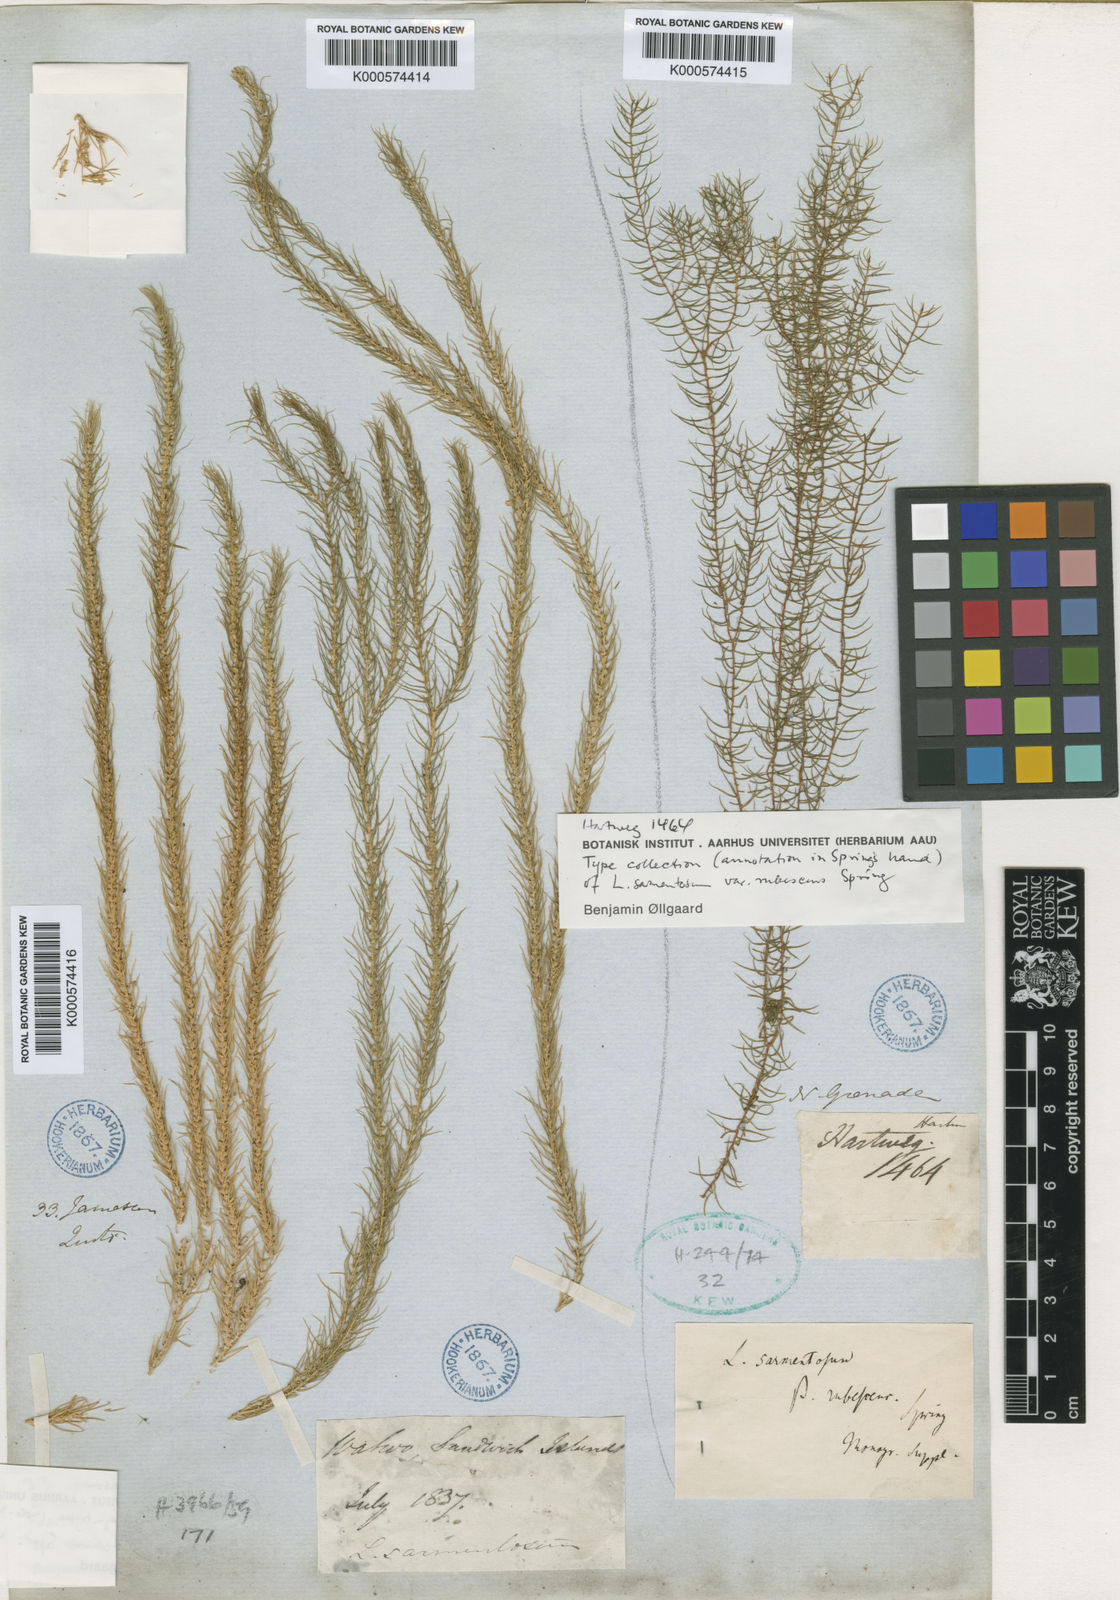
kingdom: Plantae
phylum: Tracheophyta
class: Lycopodiopsida
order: Lycopodiales
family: Lycopodiaceae
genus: Phlegmariurus
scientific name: Phlegmariurus sarmentosus
